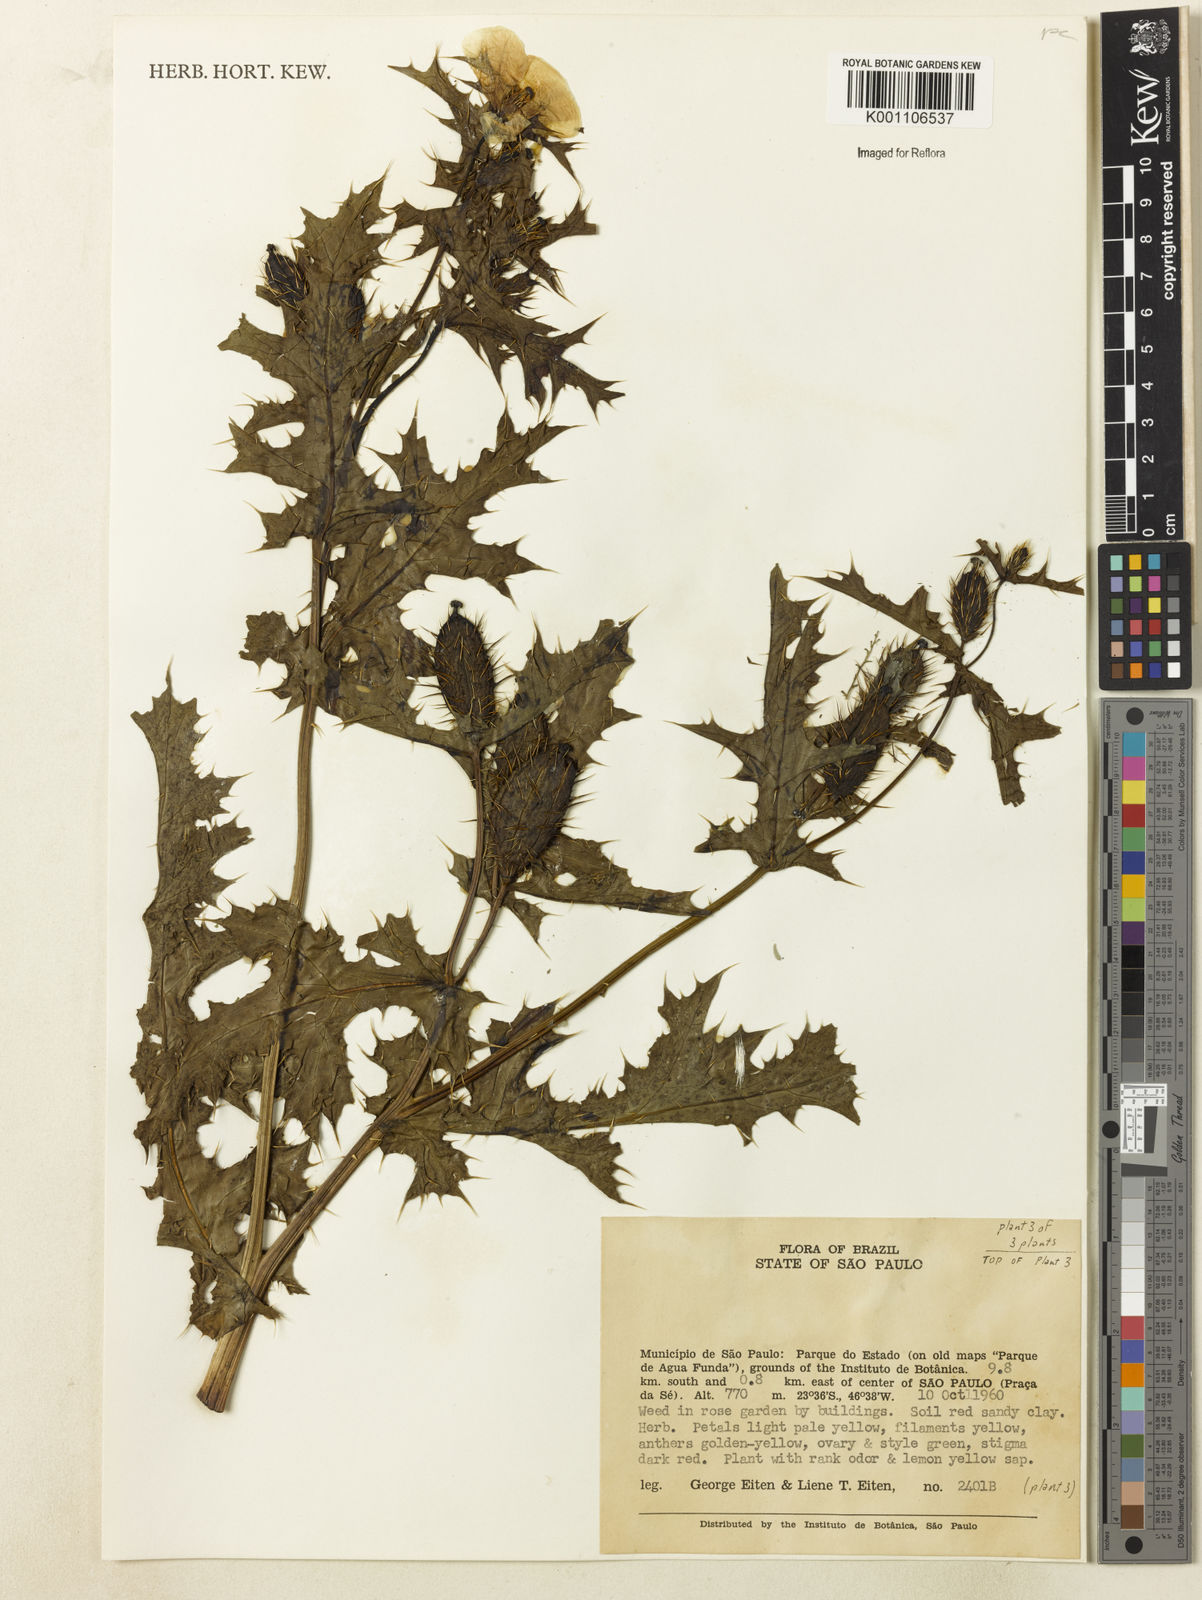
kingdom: Plantae
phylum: Tracheophyta
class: Magnoliopsida
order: Ranunculales
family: Papaveraceae
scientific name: Papaveraceae
